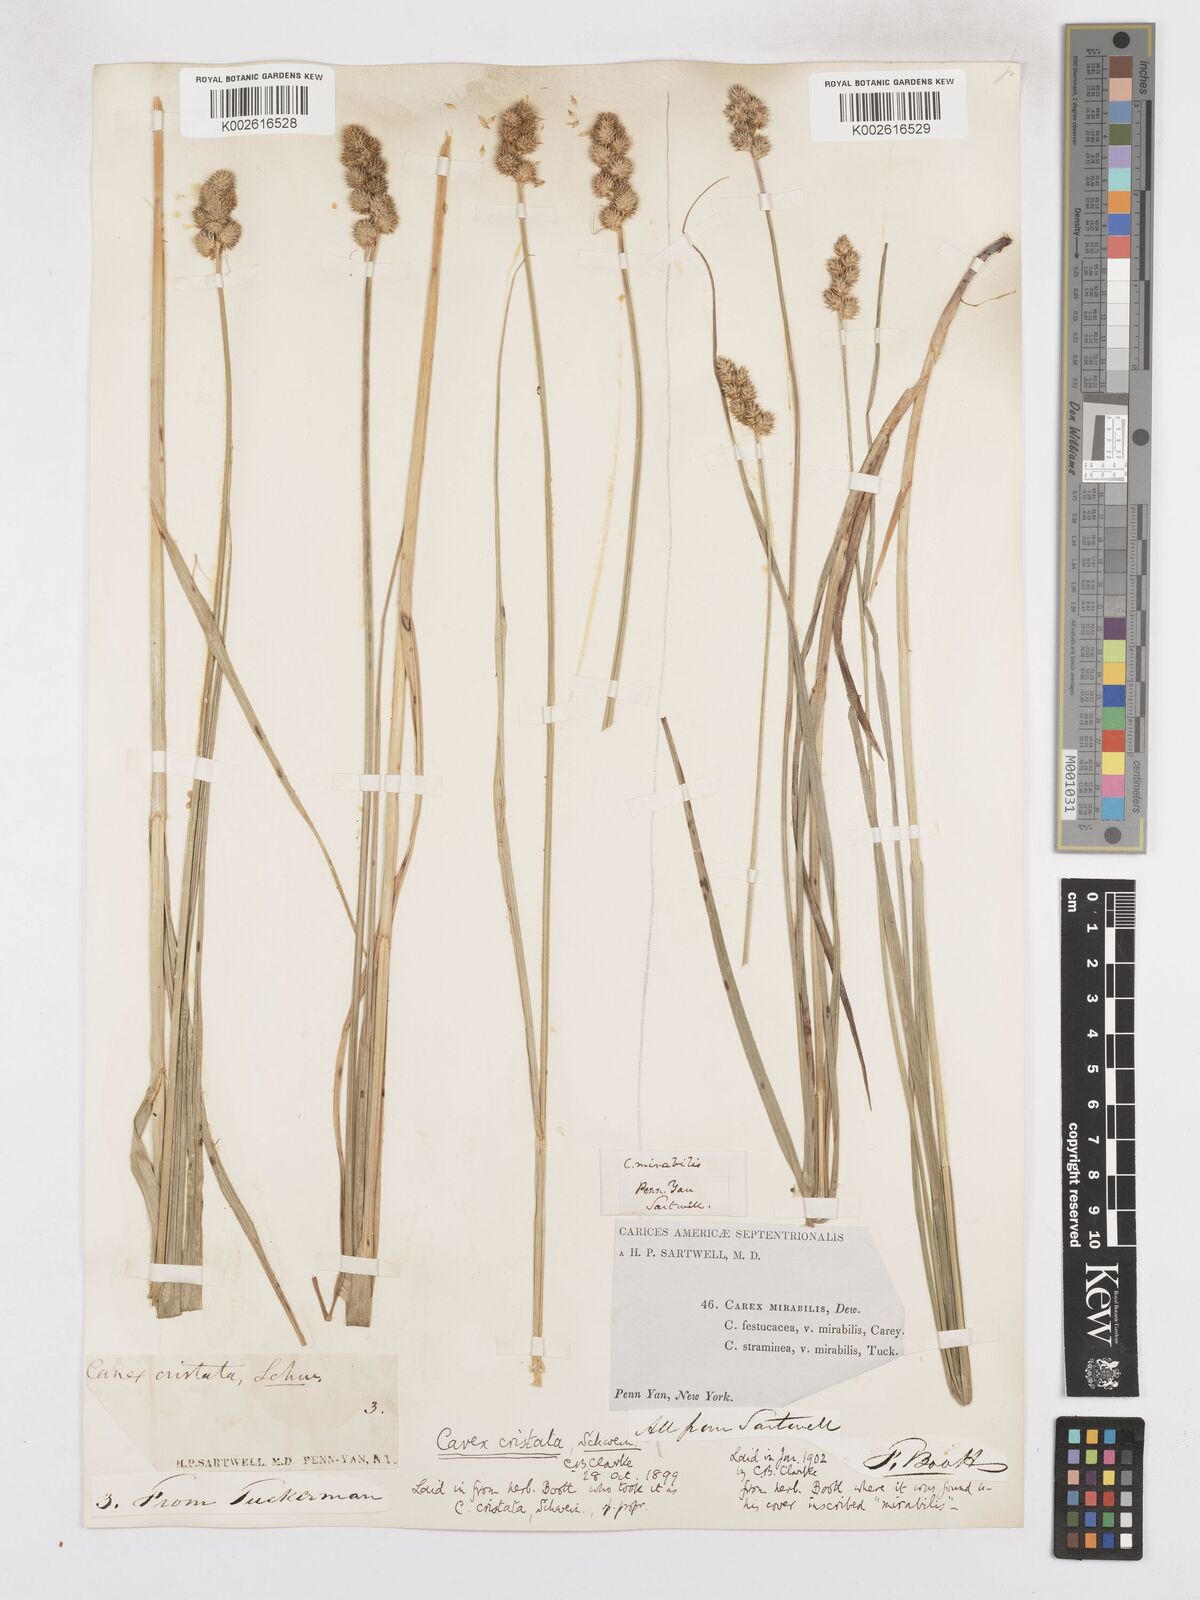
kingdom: Plantae
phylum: Tracheophyta
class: Liliopsida
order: Poales
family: Cyperaceae
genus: Carex
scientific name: Carex cristatella
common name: Crested oval sedge
